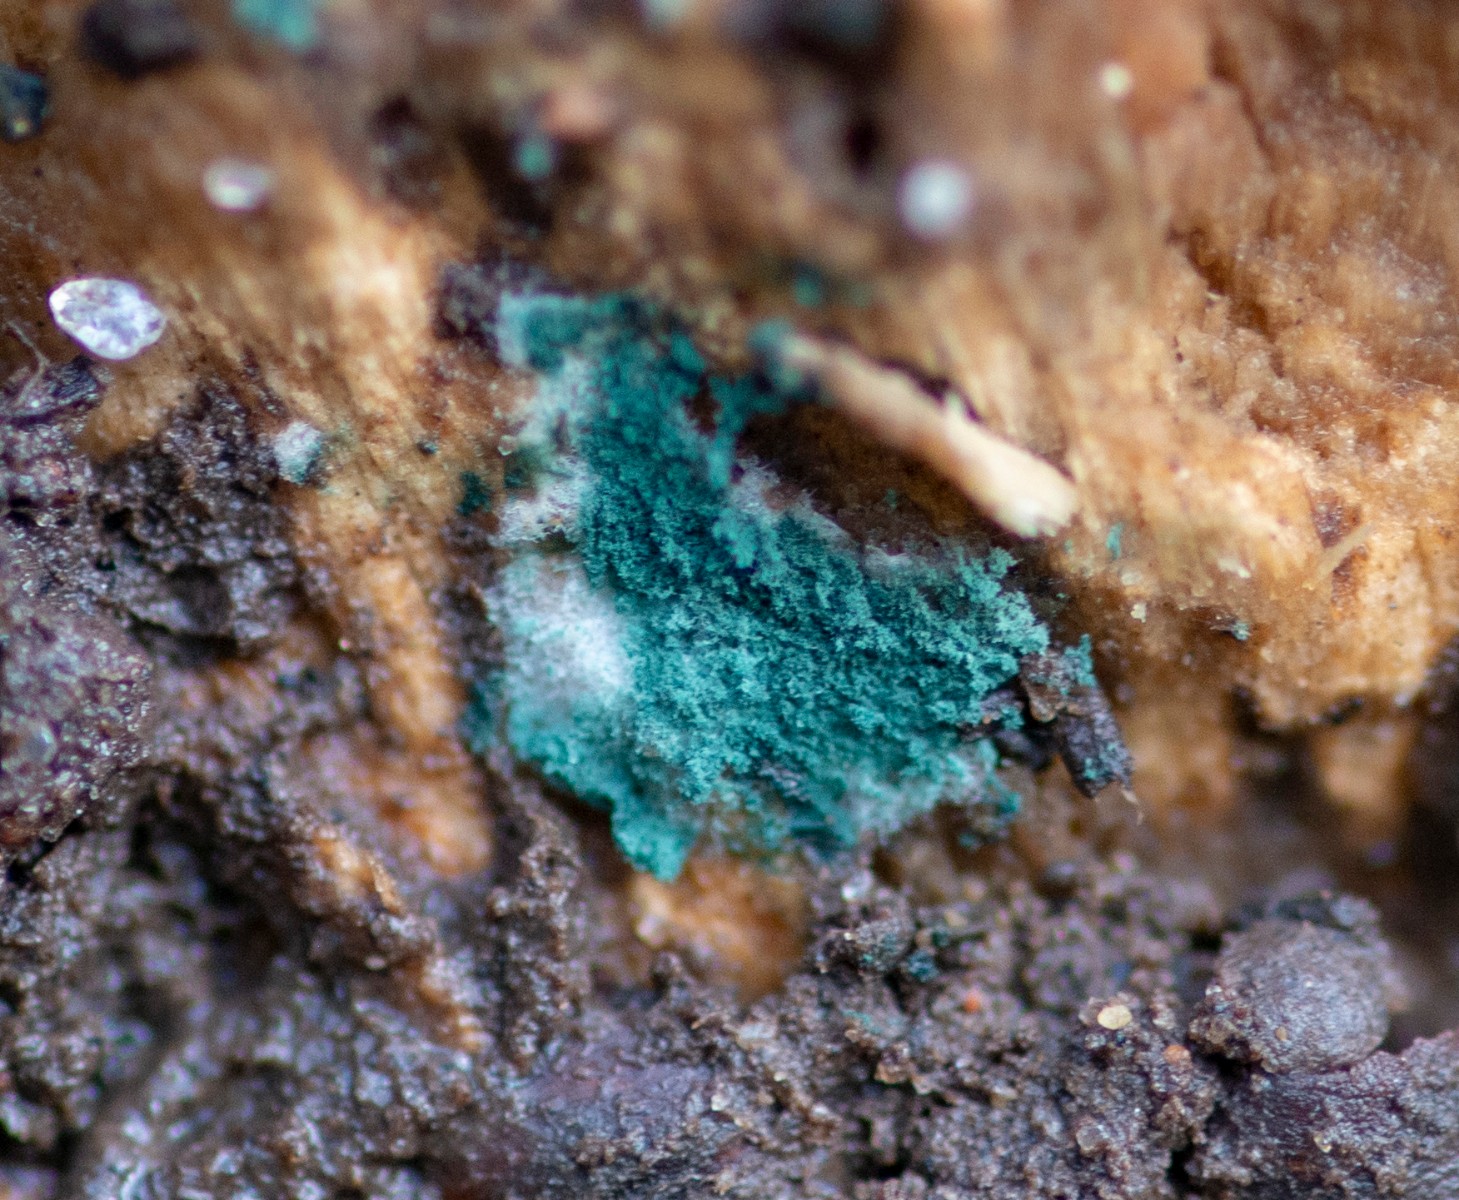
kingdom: Fungi
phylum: Ascomycota
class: Sordariomycetes
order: Hypocreales
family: Hypocreaceae
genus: Trichoderma
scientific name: Trichoderma
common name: kødkerne
